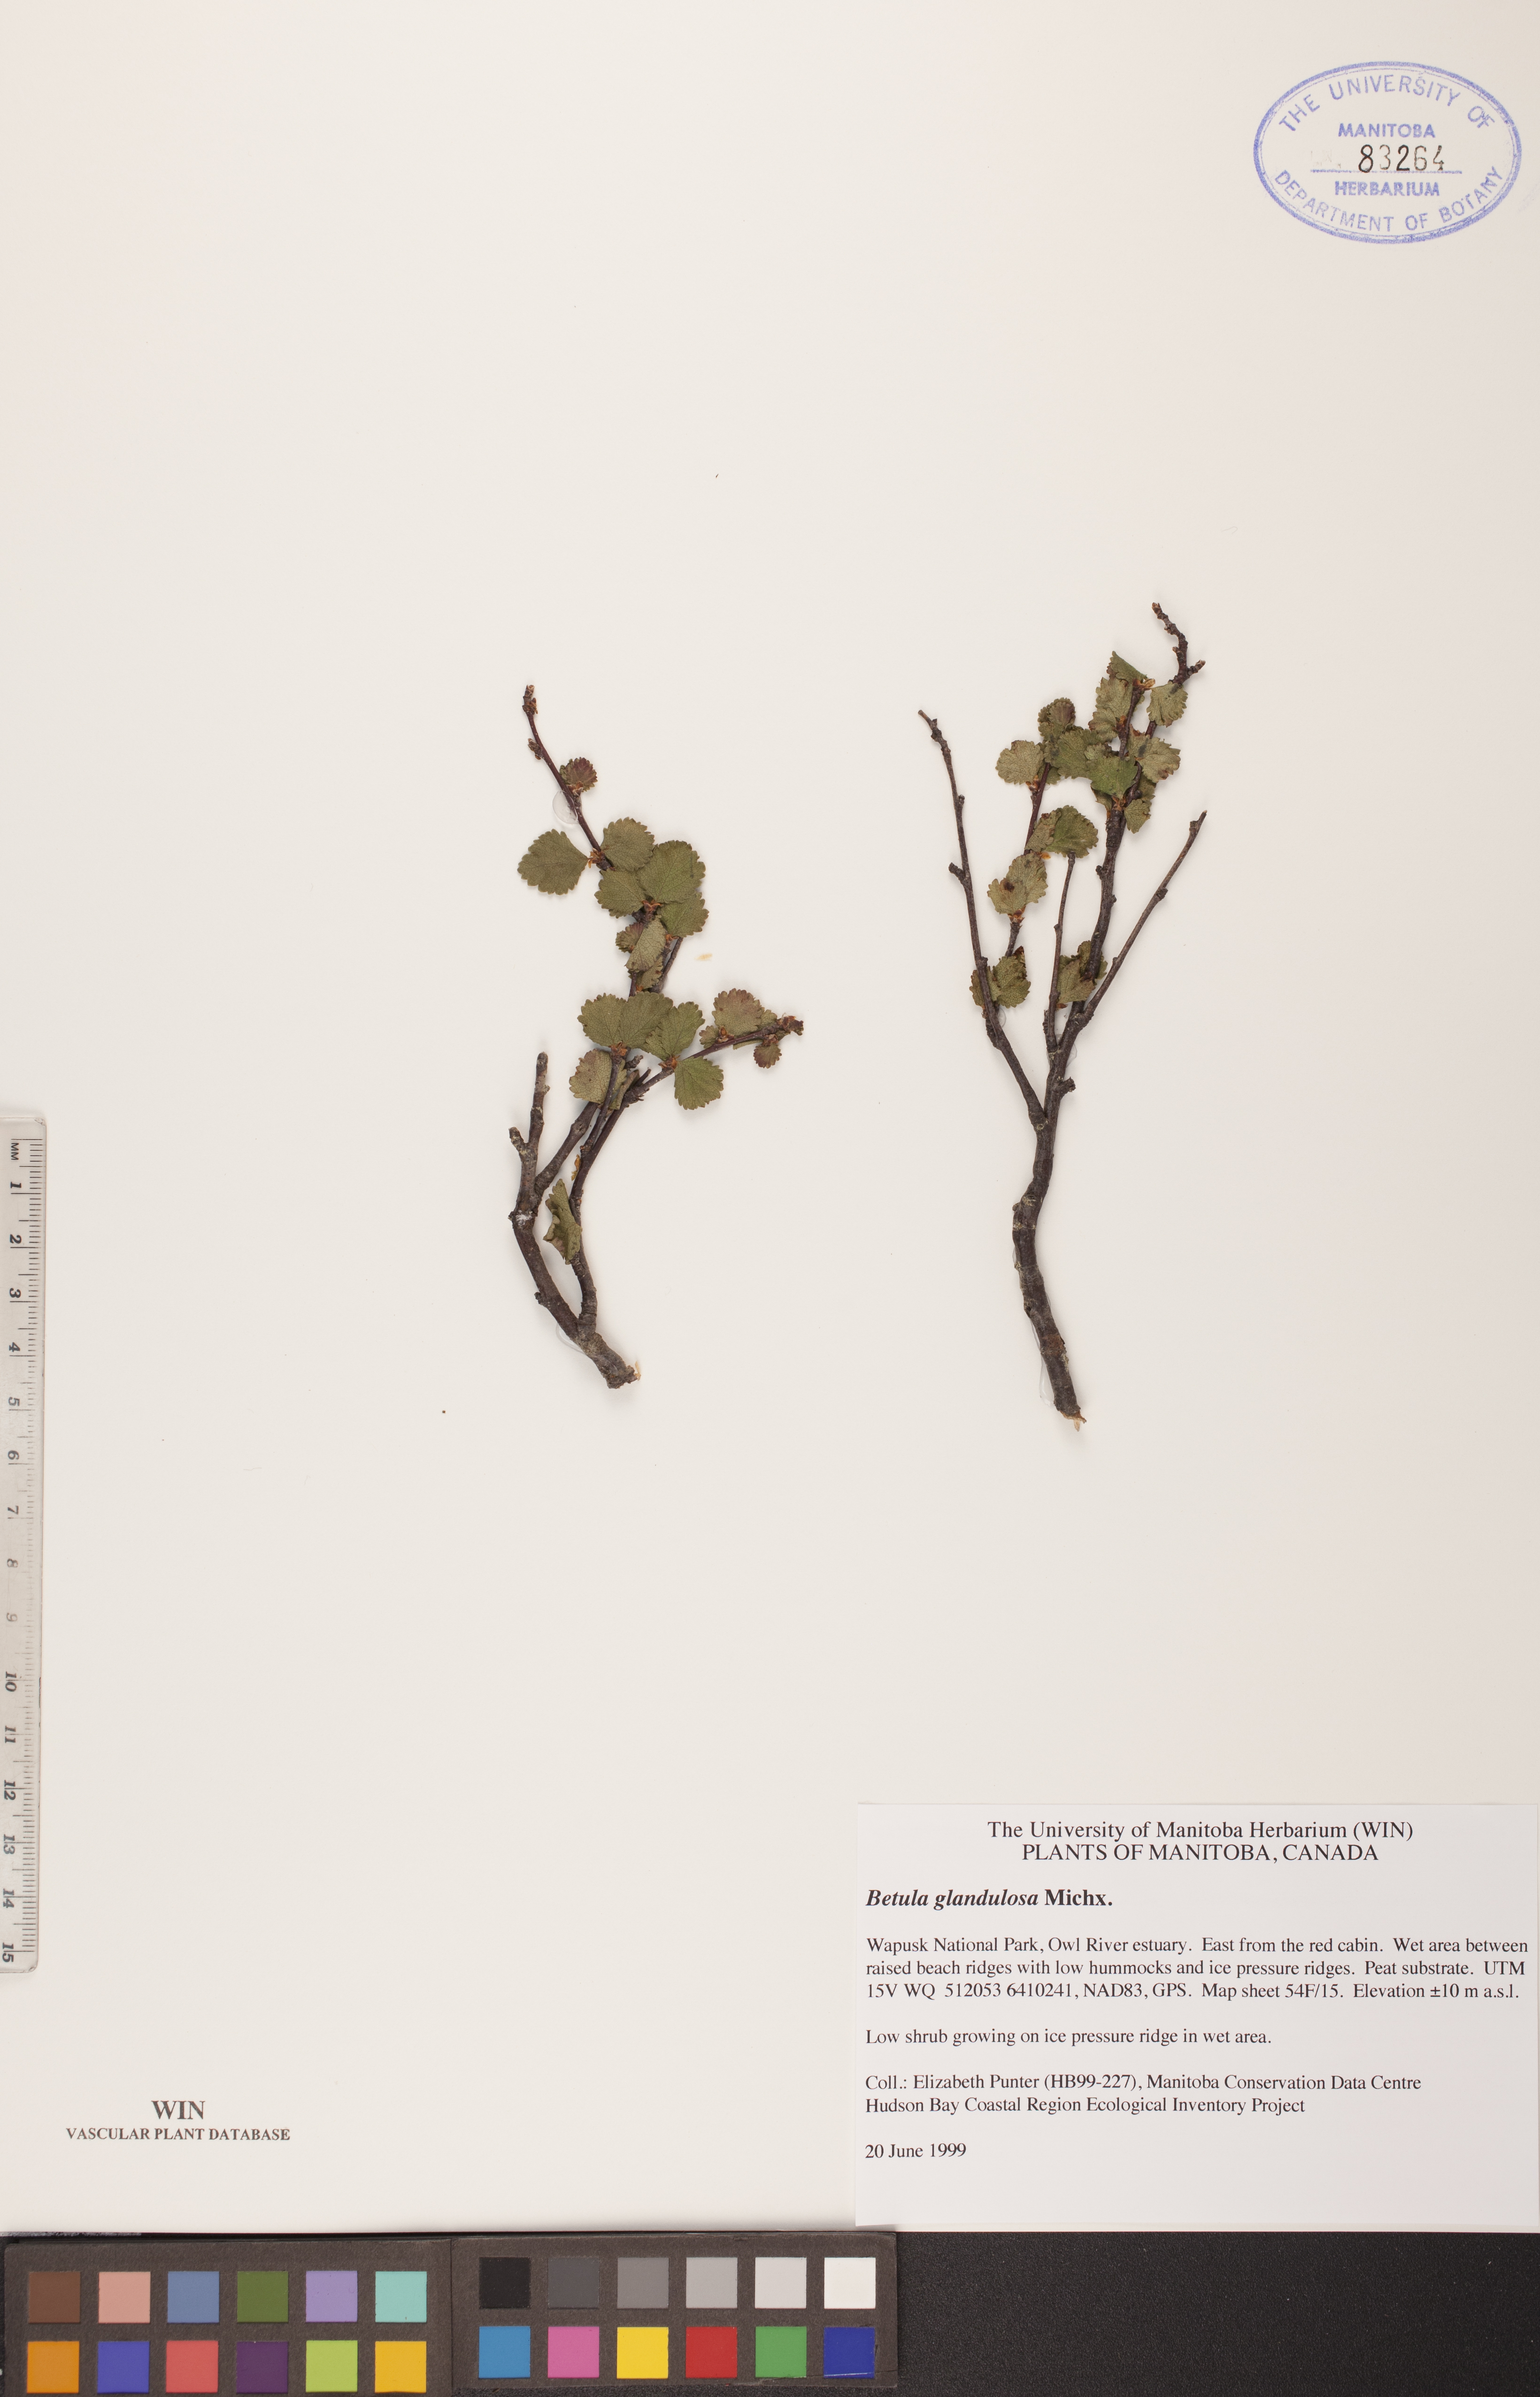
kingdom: Plantae
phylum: Tracheophyta
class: Magnoliopsida
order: Fagales
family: Betulaceae
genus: Betula
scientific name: Betula glandulosa
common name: Dwarf birch
